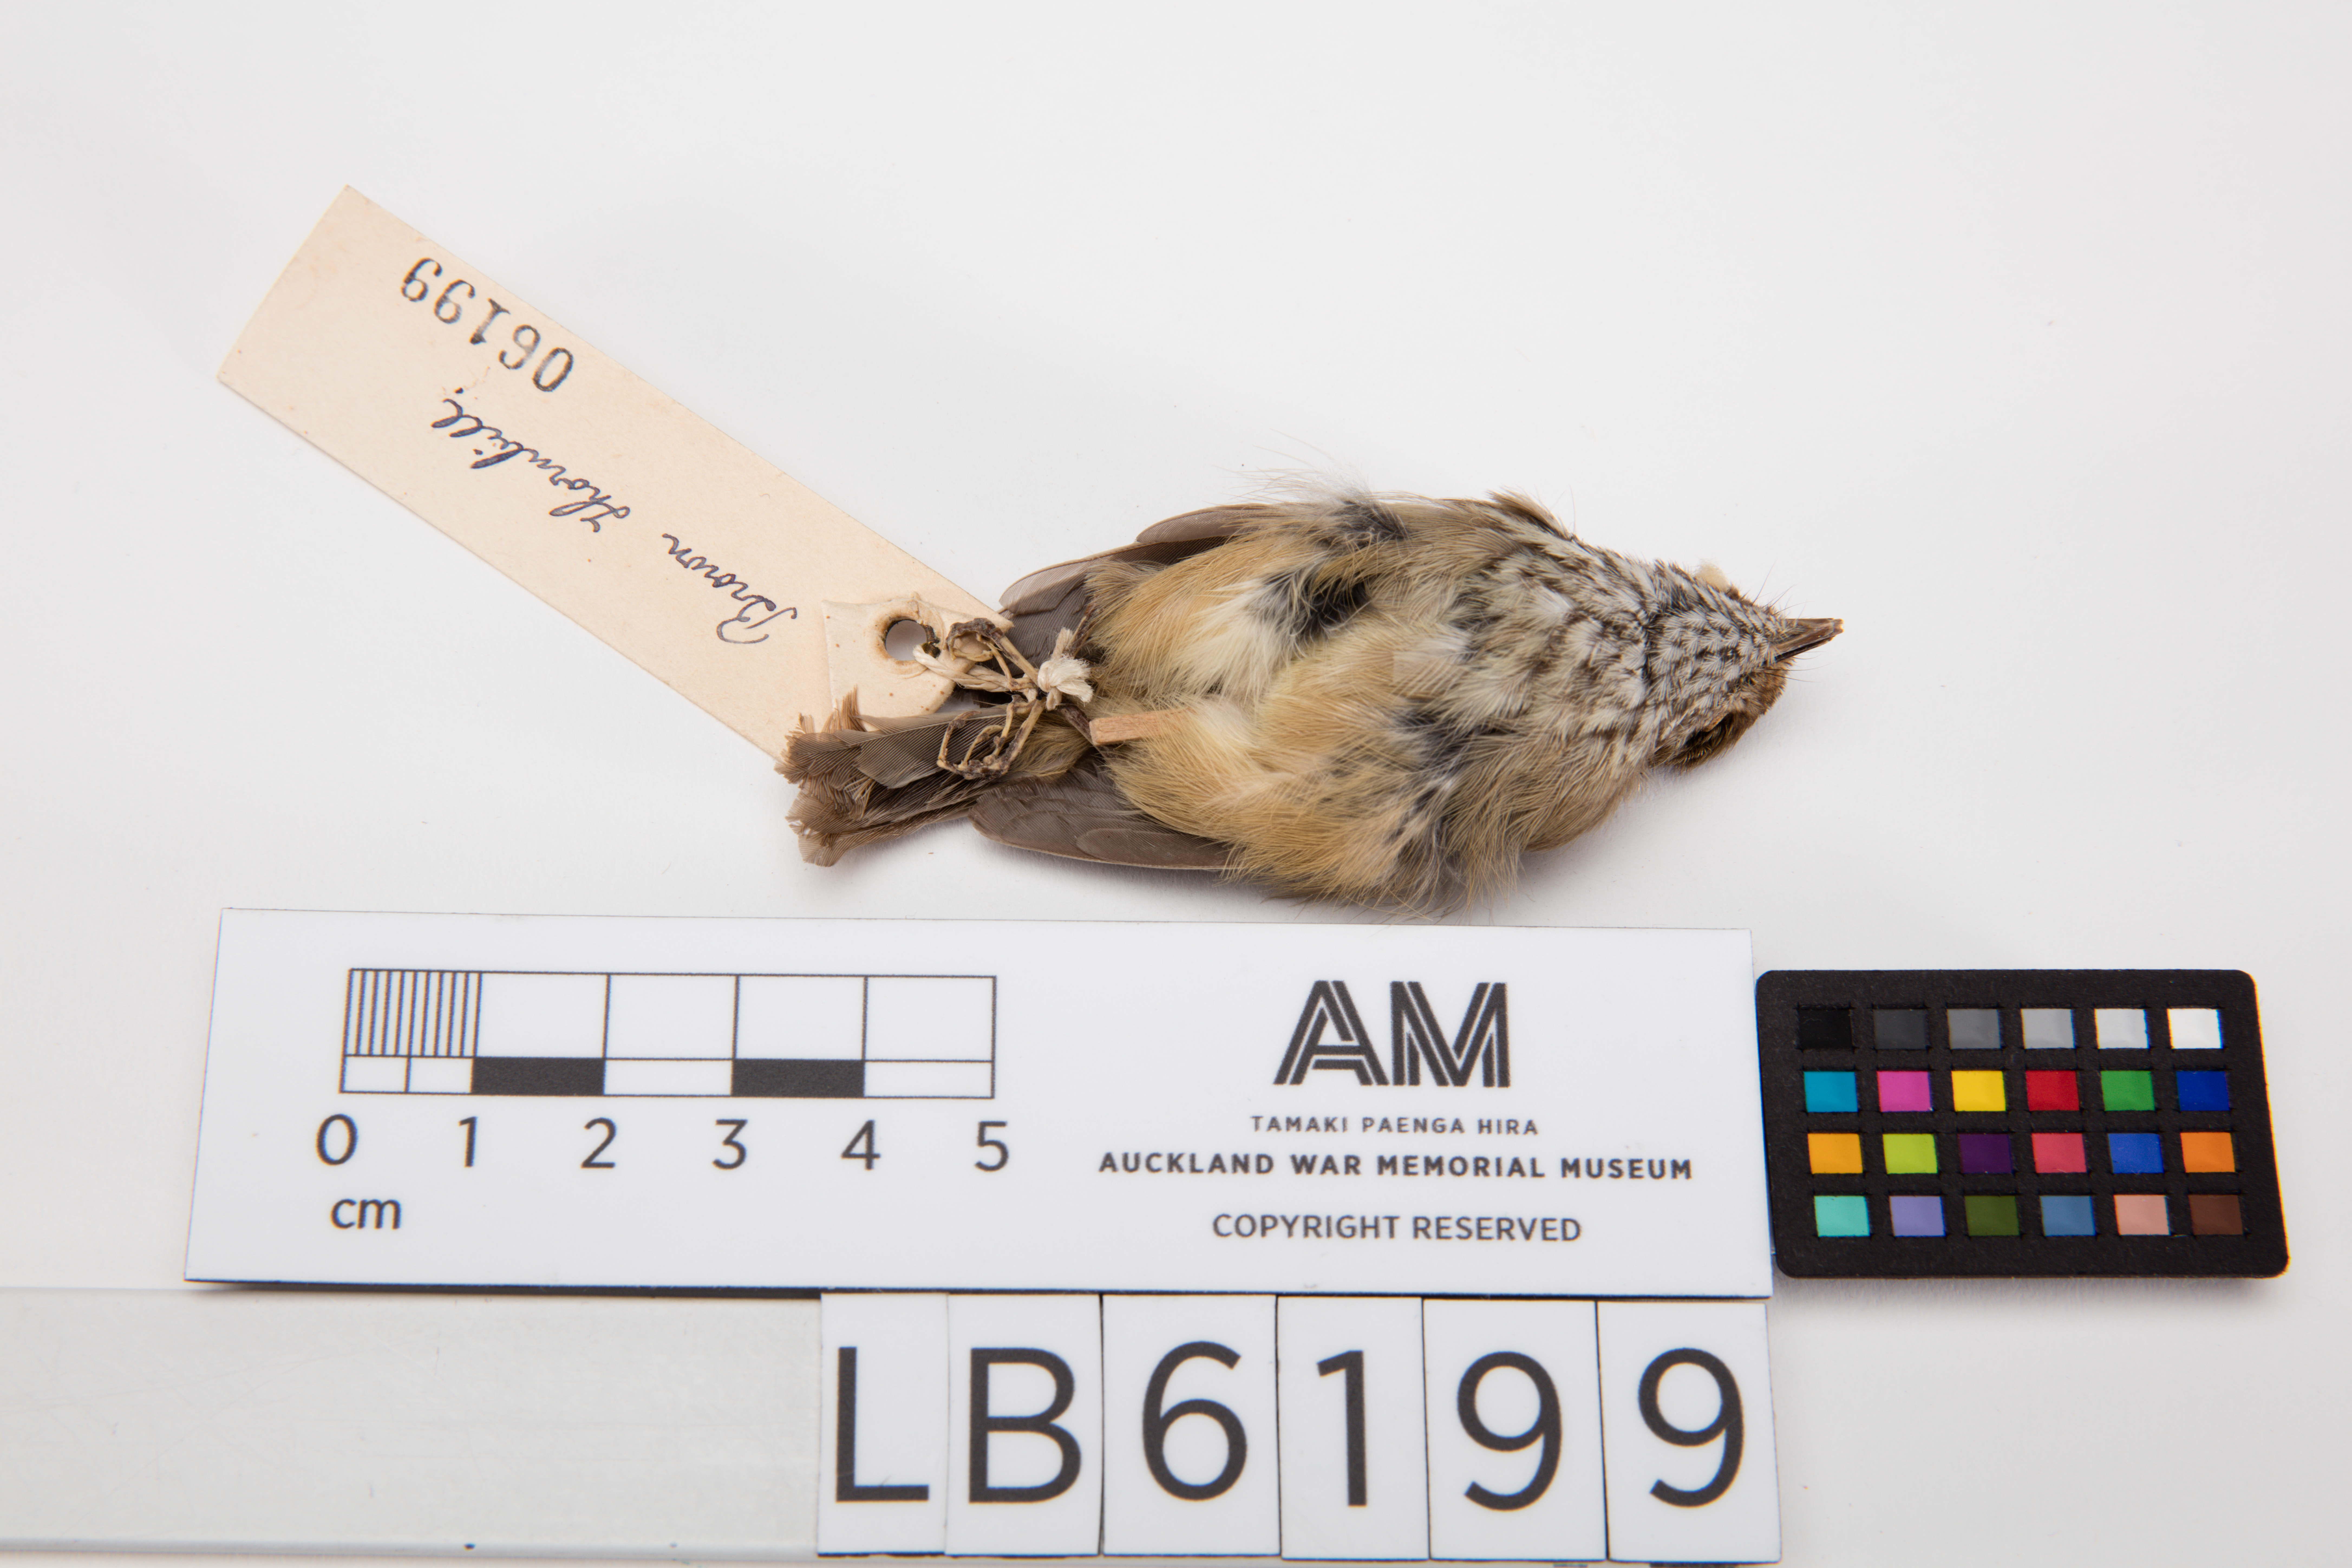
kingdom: Animalia
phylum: Chordata
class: Aves
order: Passeriformes
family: Acanthizidae
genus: Acanthiza
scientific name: Acanthiza pusilla
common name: Brown thornbill
